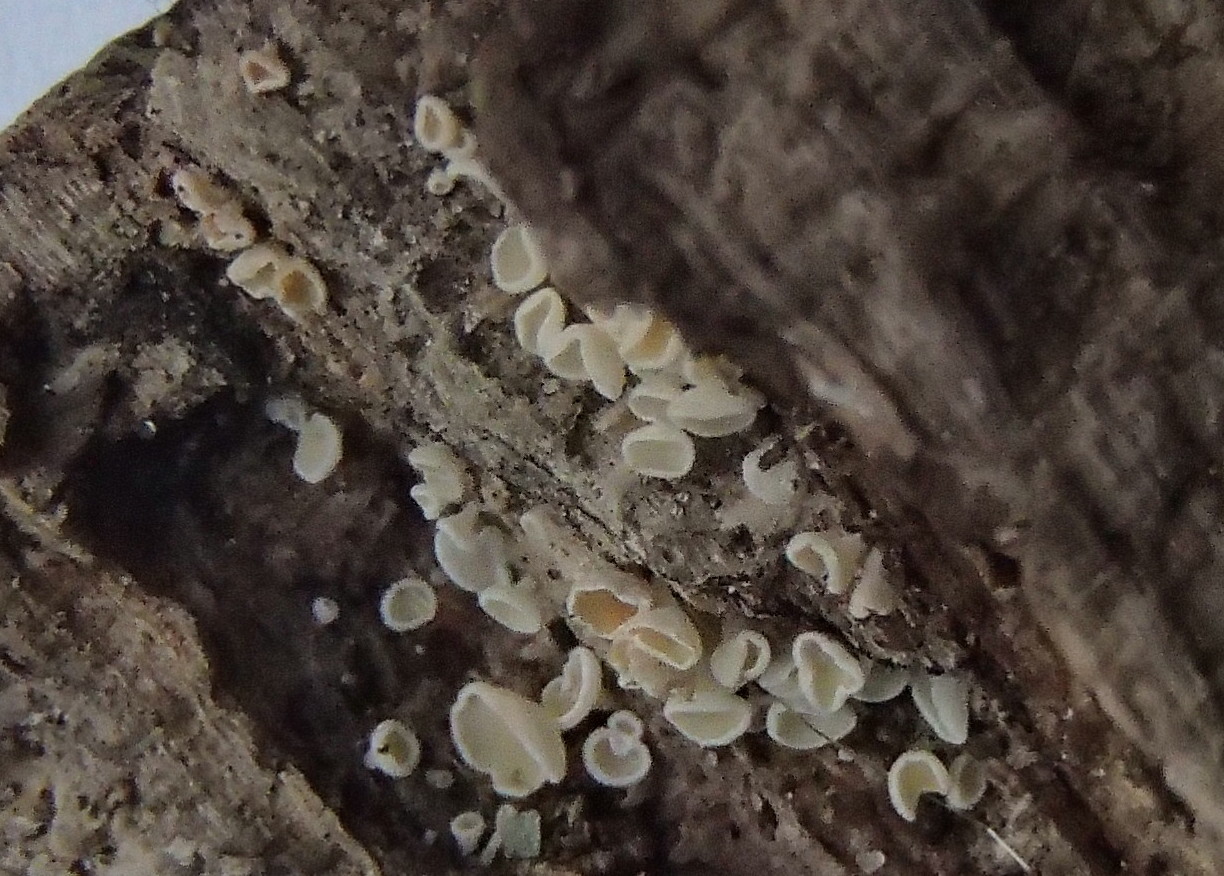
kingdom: Fungi
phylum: Ascomycota
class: Leotiomycetes
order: Helotiales
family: Lachnaceae
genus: Dasyscyphella
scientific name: Dasyscyphella
